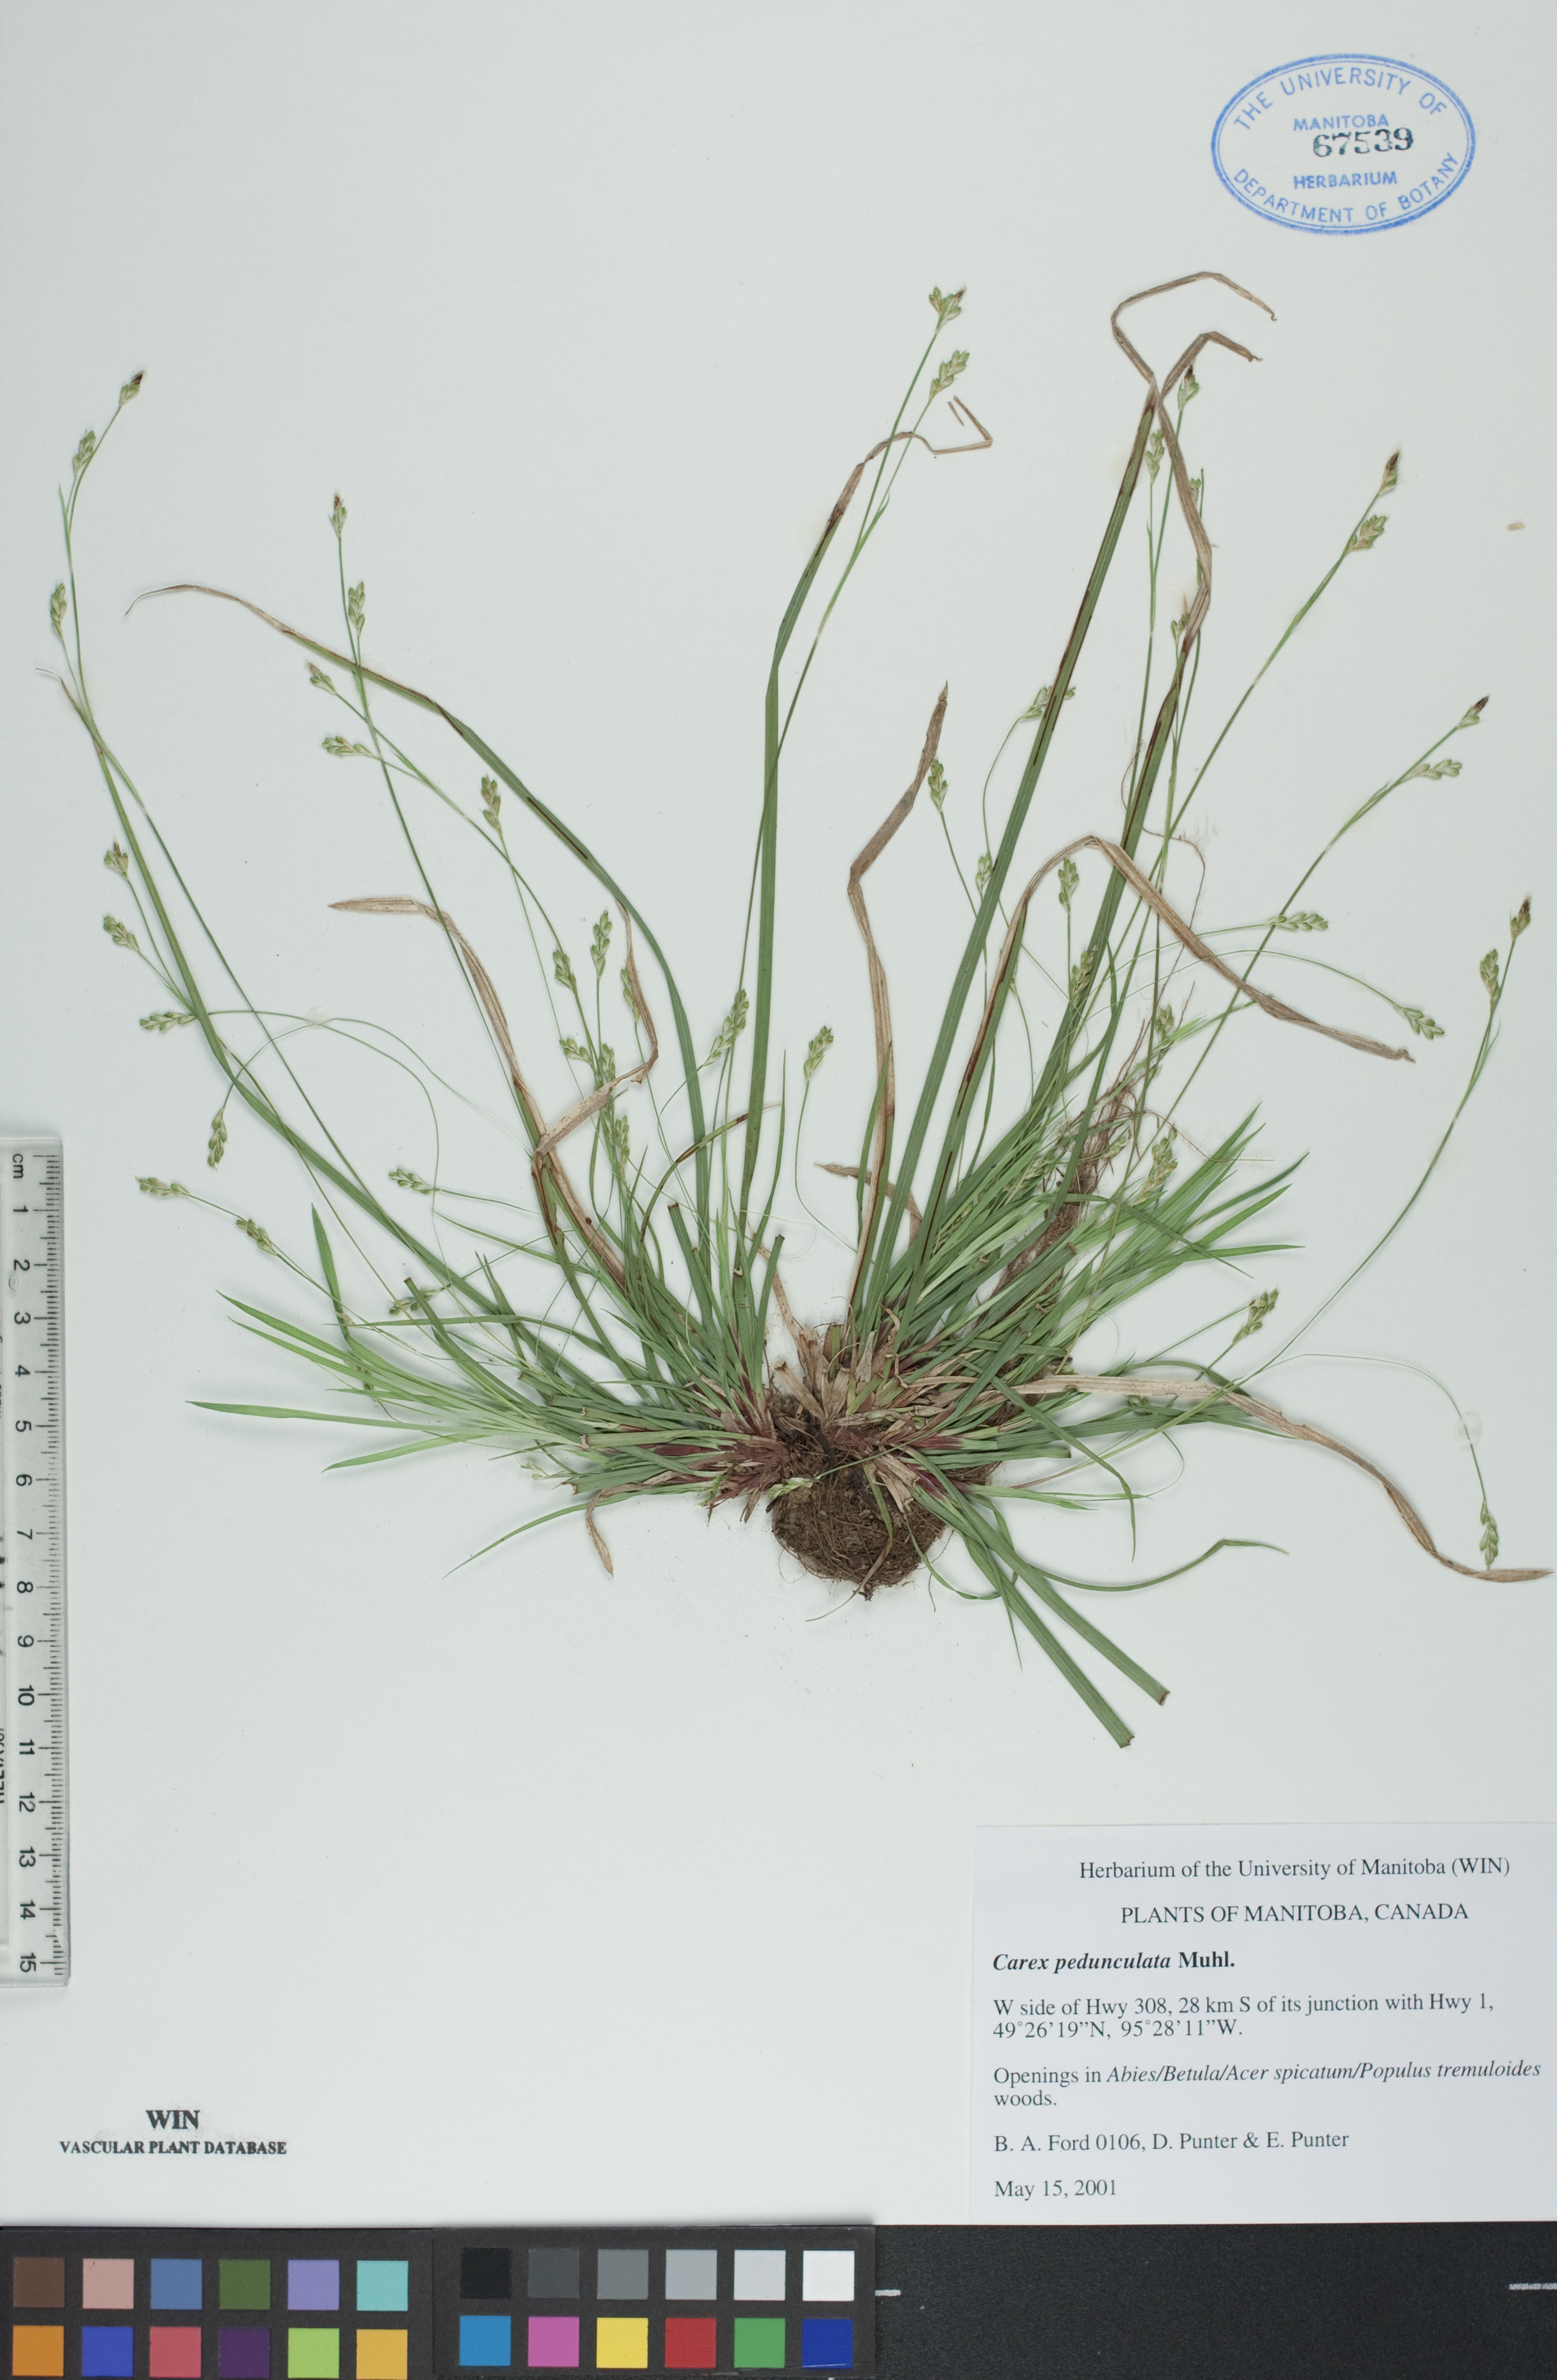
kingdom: Plantae
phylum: Tracheophyta
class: Liliopsida
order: Poales
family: Cyperaceae
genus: Carex
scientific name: Carex pedunculata
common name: Pedunculate sedge
